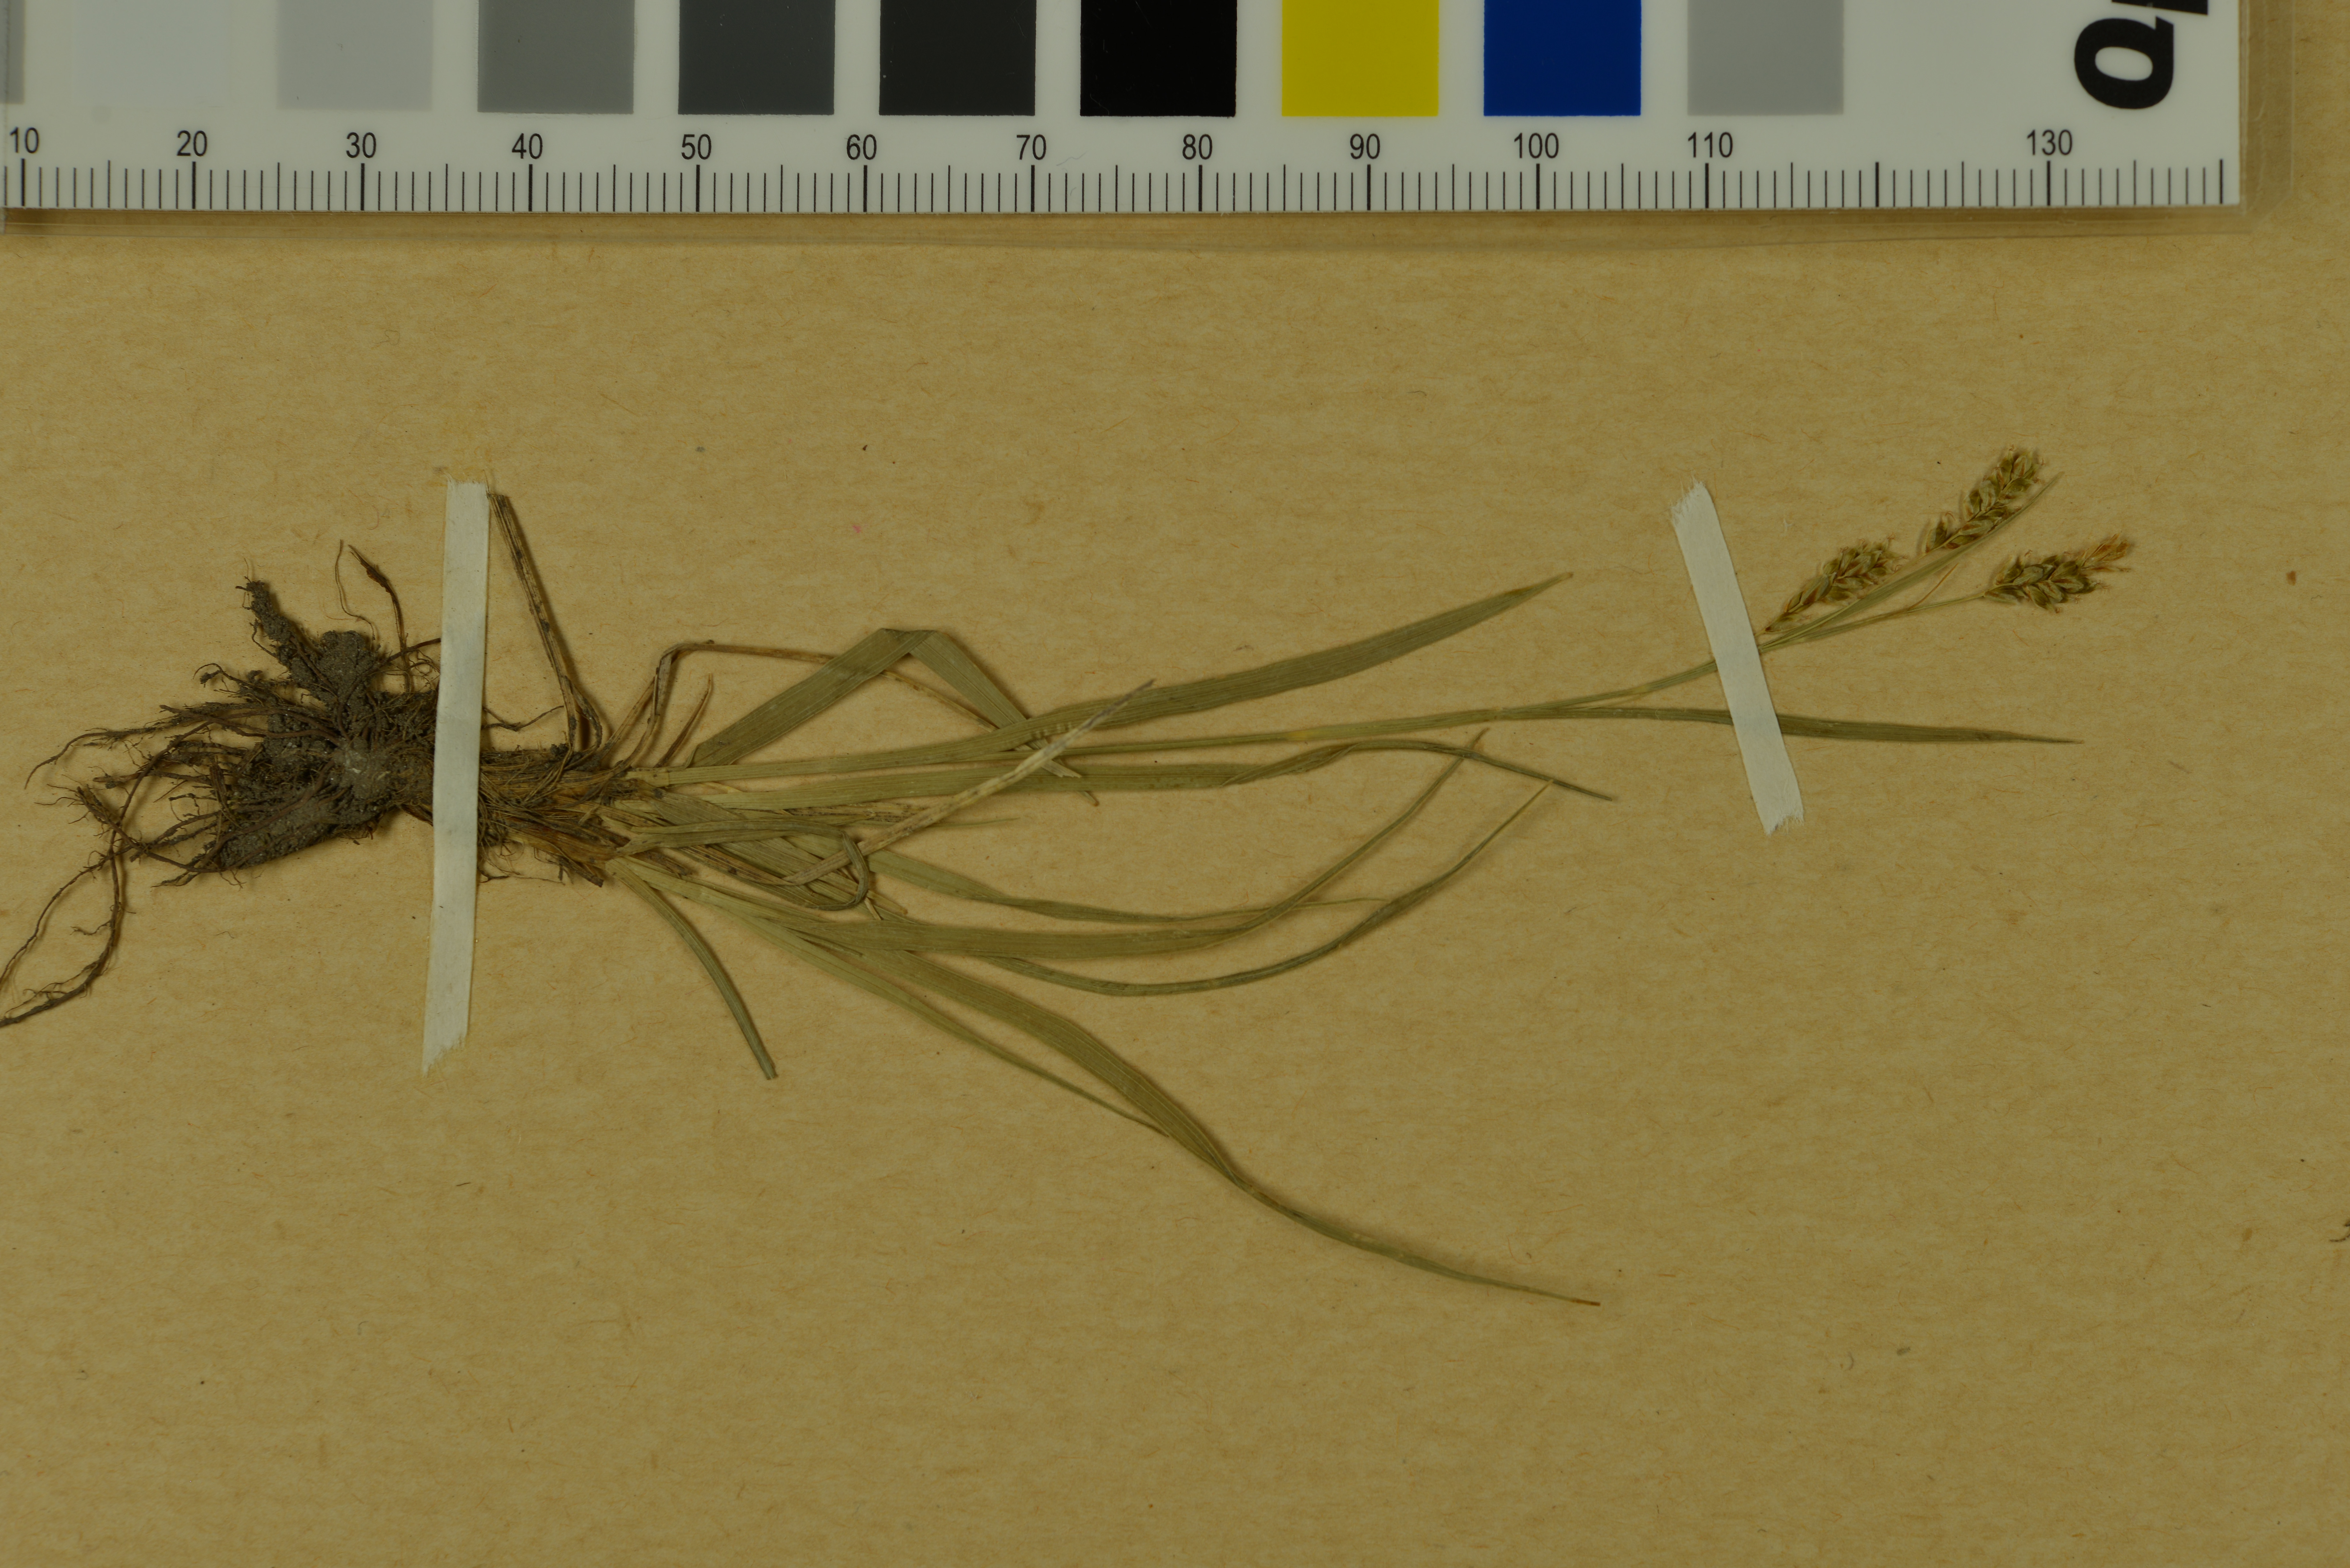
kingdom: Plantae
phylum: Tracheophyta
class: Liliopsida
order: Poales
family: Cyperaceae
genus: Carex
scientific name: Carex delicata
